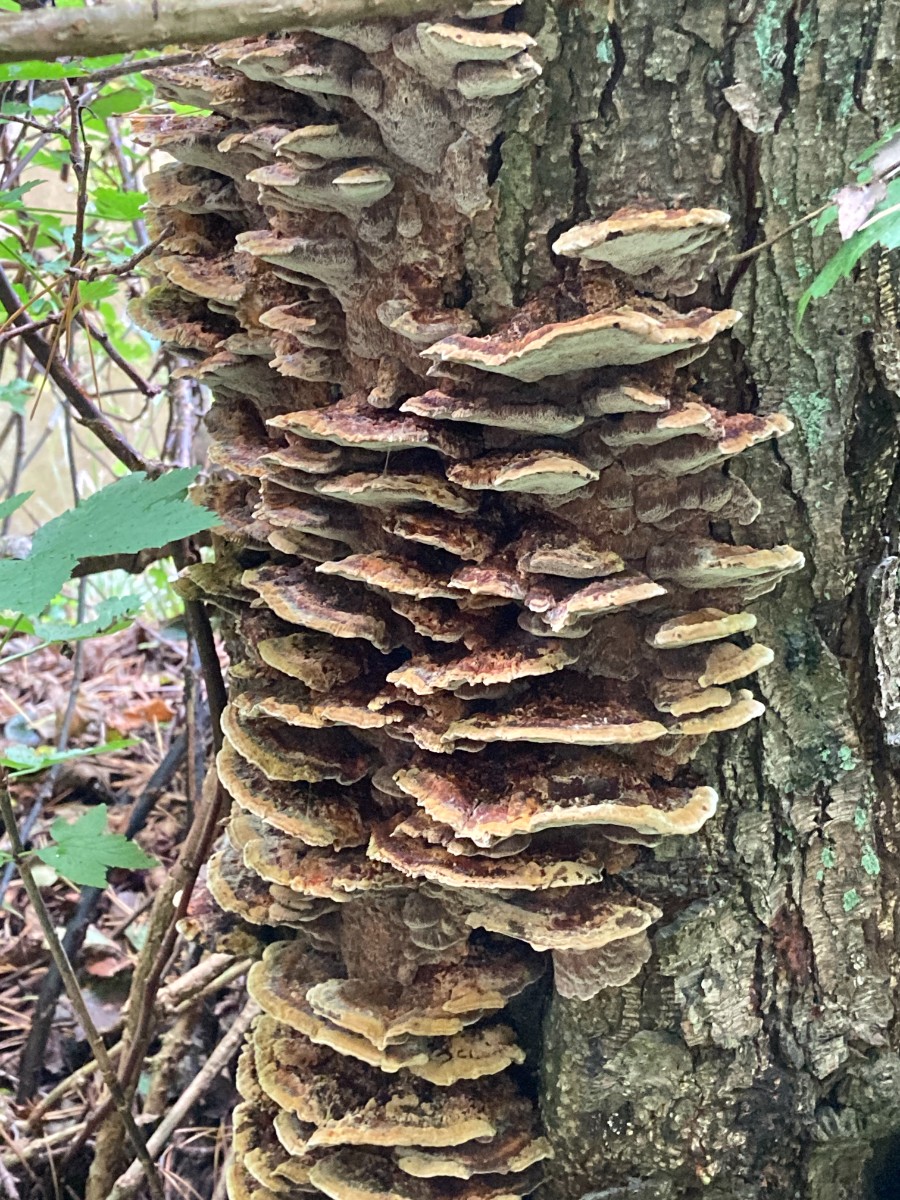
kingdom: Fungi
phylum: Basidiomycota
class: Agaricomycetes
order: Hymenochaetales
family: Hymenochaetaceae
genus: Xanthoporia
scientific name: Xanthoporia radiata
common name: elle-spejlporesvamp
